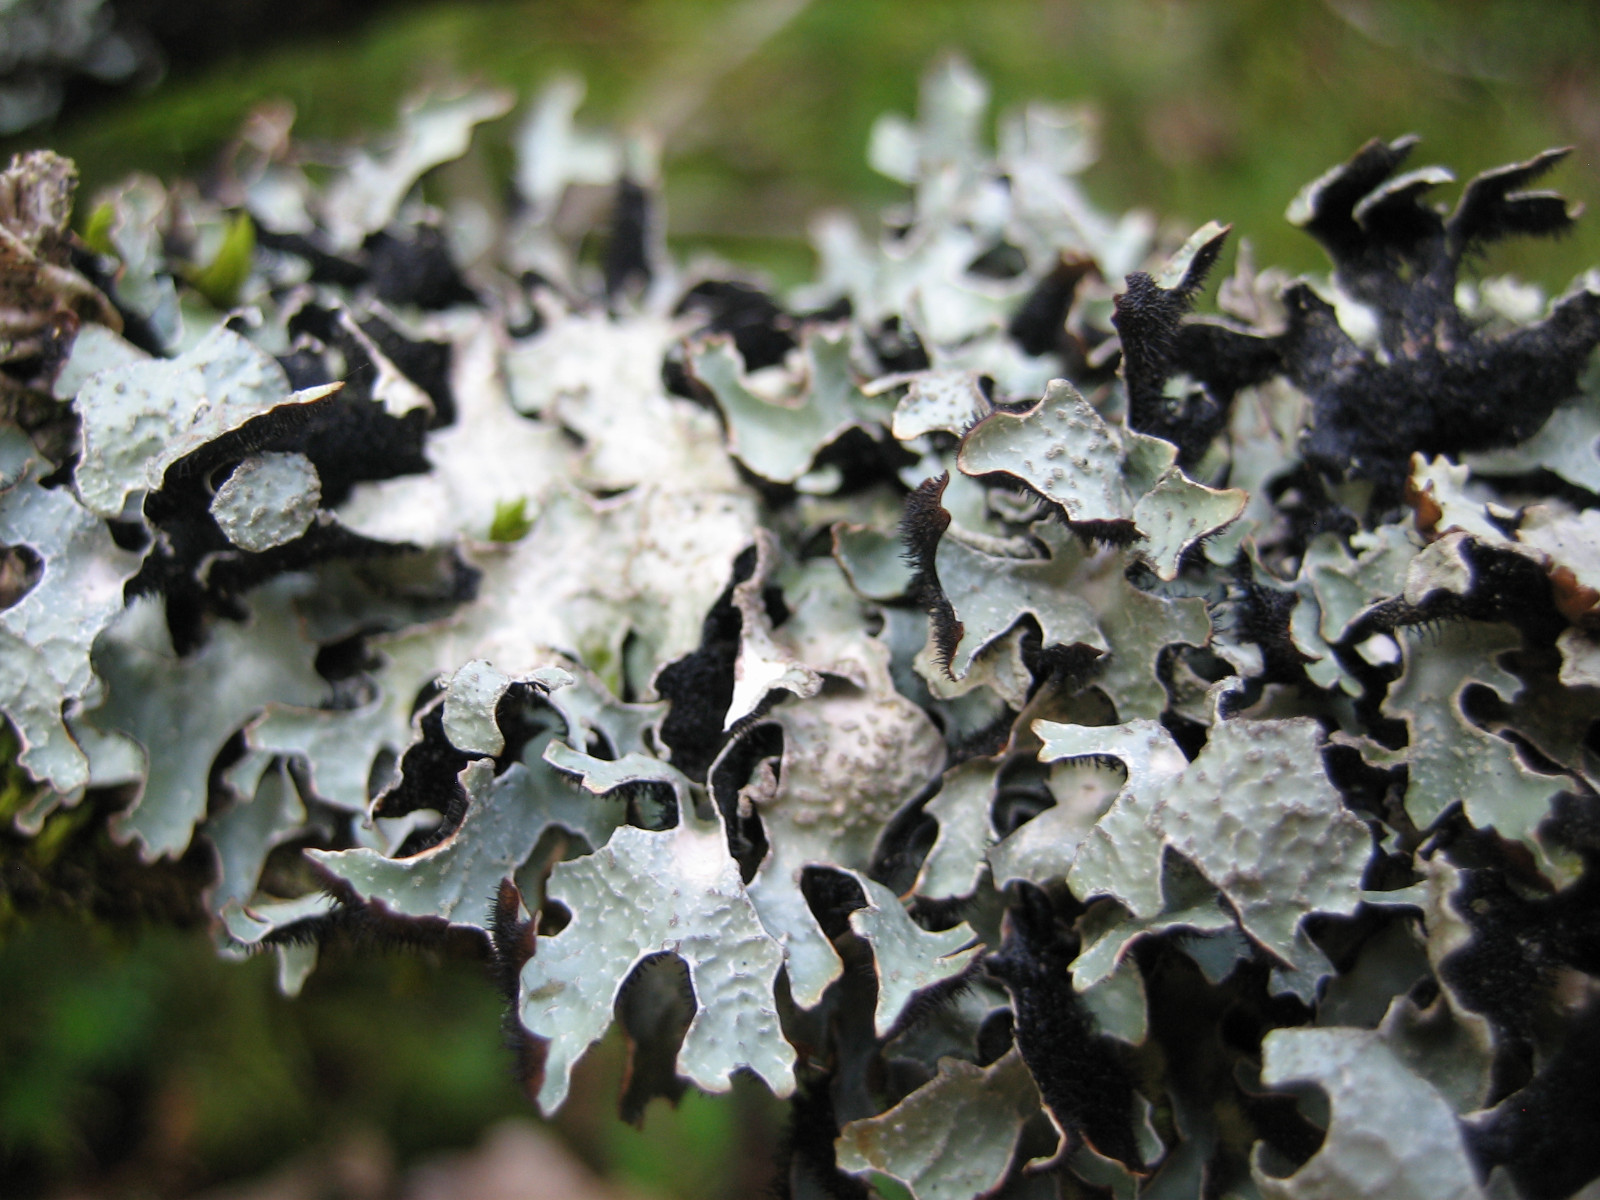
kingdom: Fungi
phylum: Ascomycota
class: Lecanoromycetes
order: Lecanorales
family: Parmeliaceae
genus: Parmelia
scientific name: Parmelia sulcata
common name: rynket skållav
